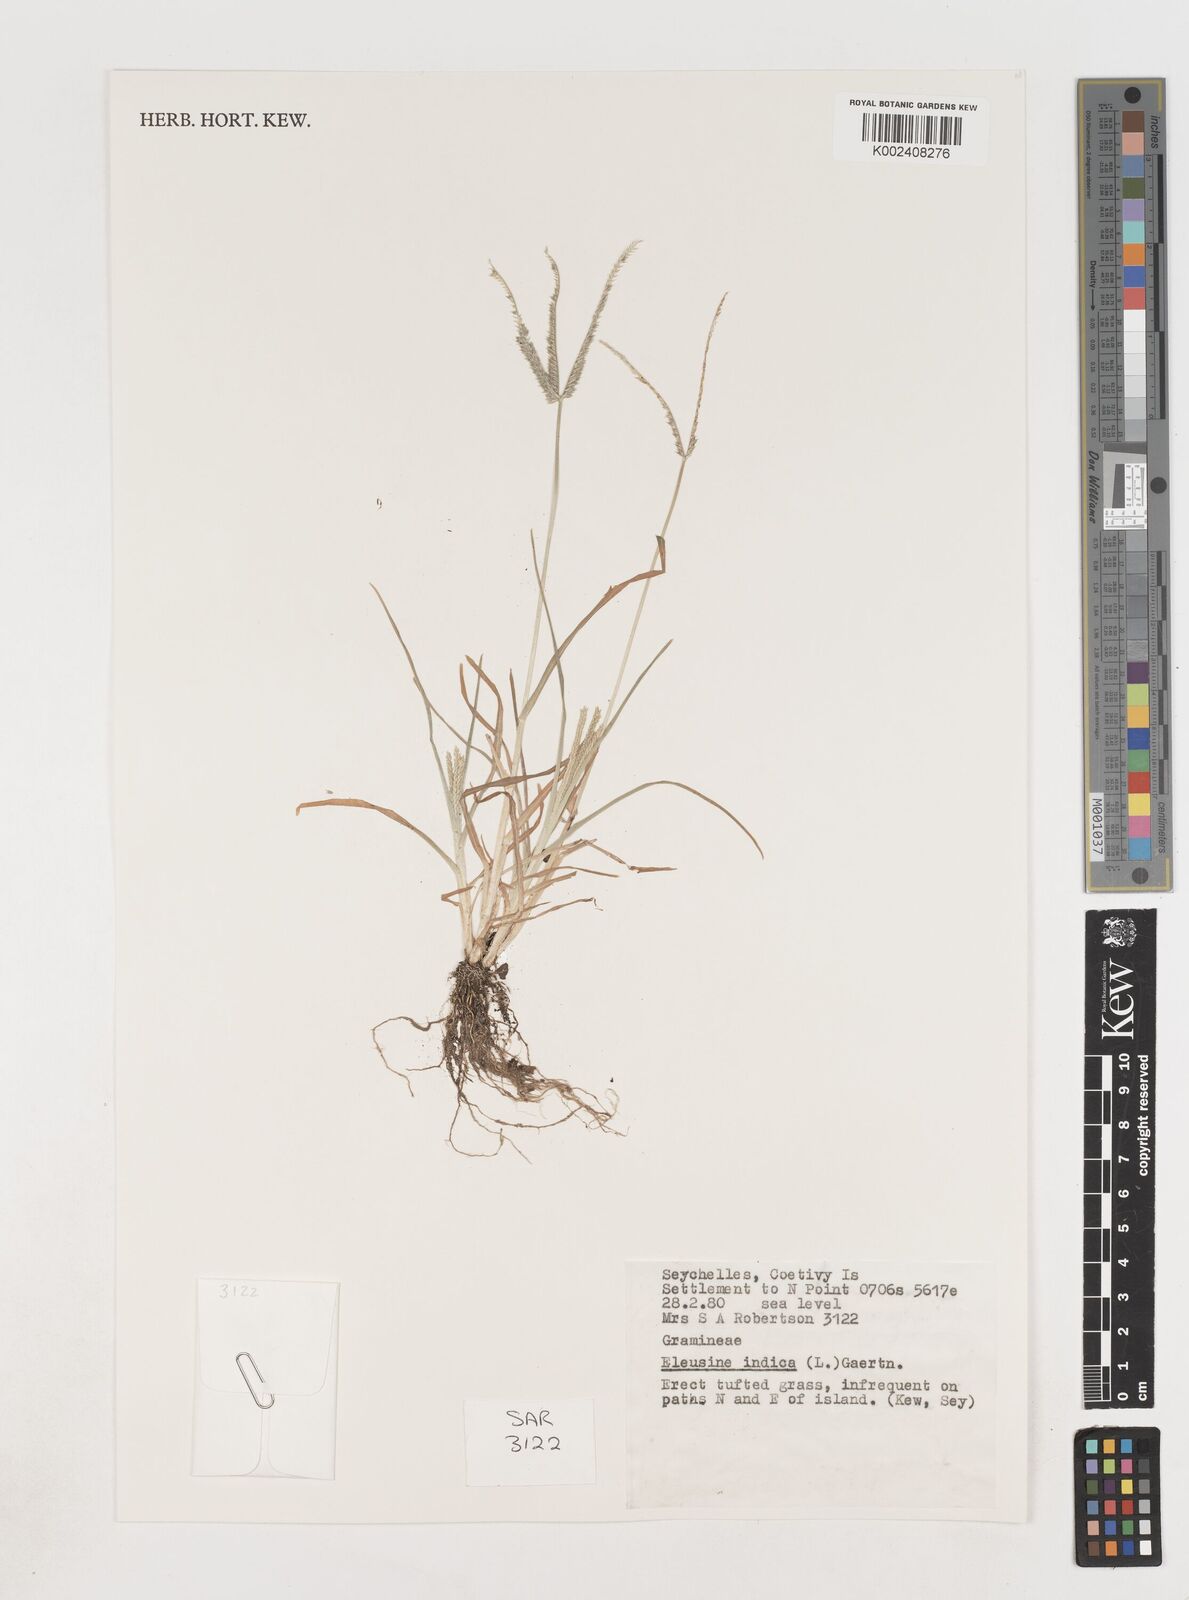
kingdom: Plantae
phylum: Tracheophyta
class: Liliopsida
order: Poales
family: Poaceae
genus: Eleusine
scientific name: Eleusine indica
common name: Yard-grass
